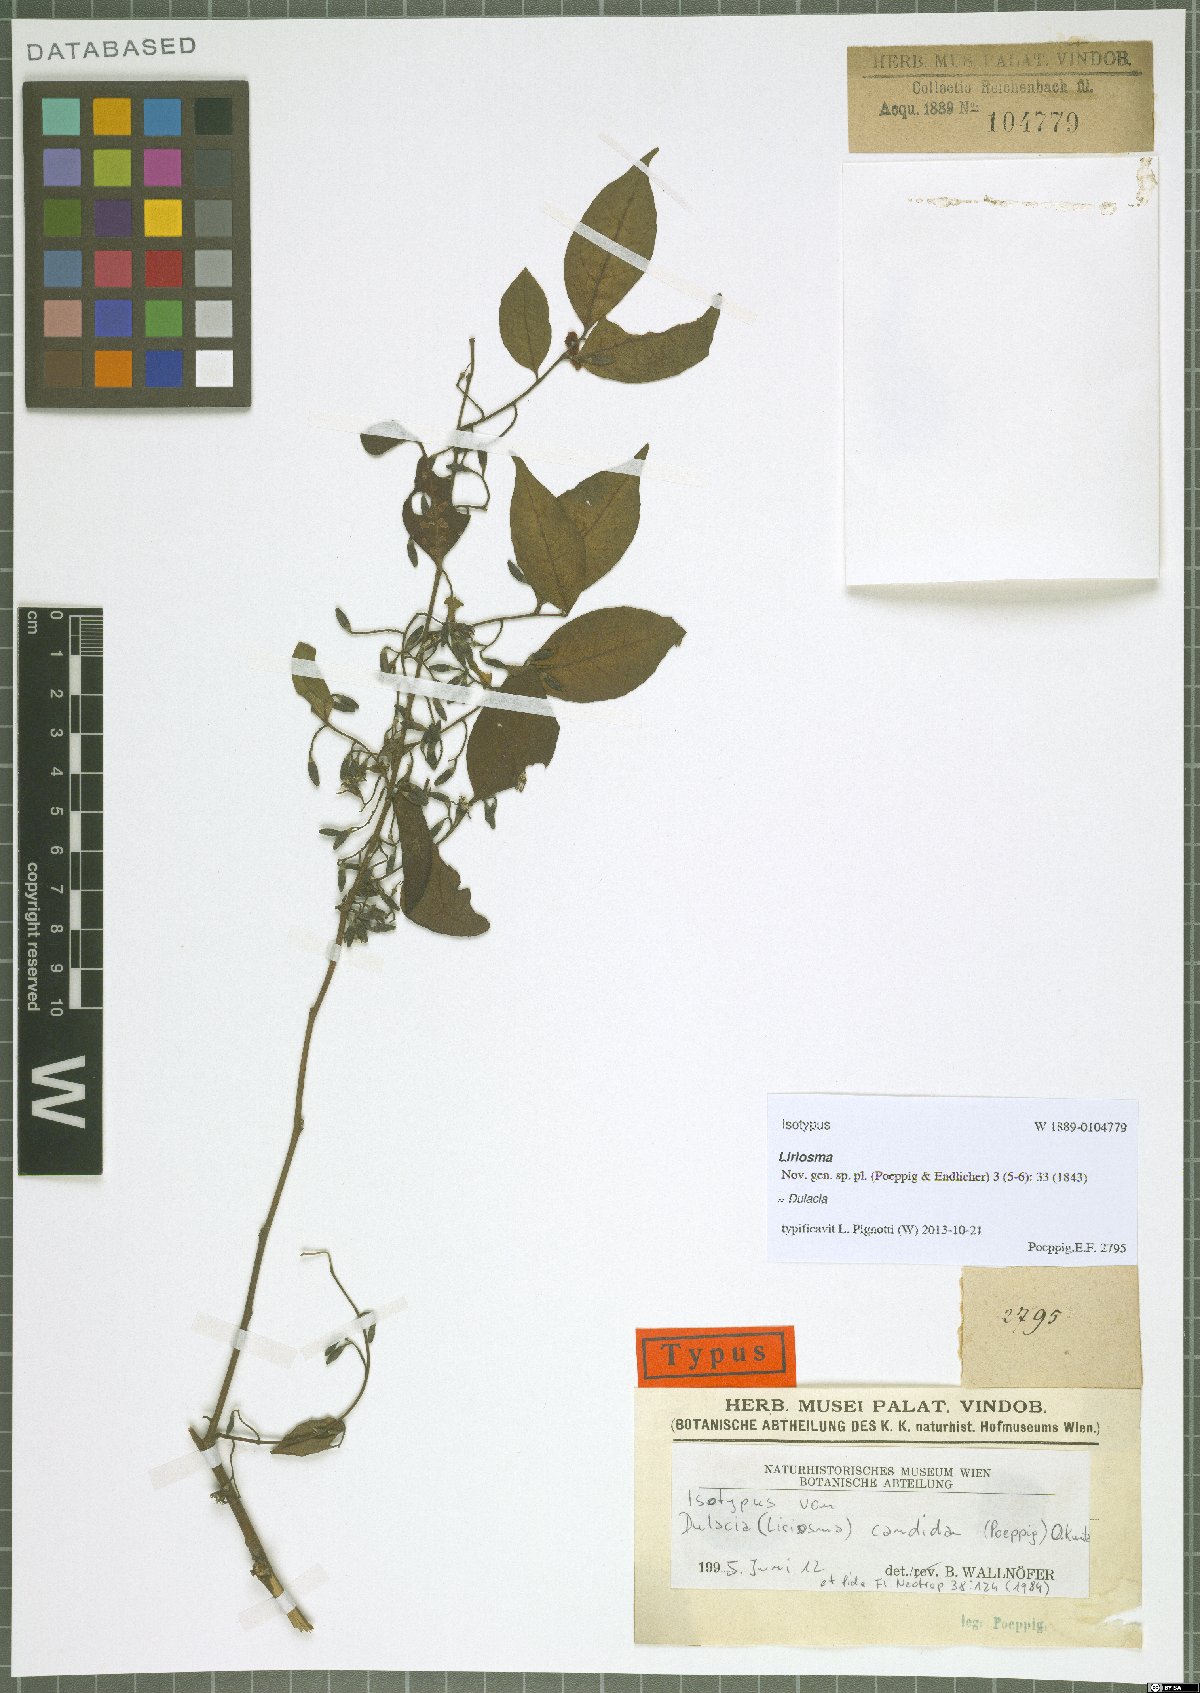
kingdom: Plantae
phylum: Tracheophyta
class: Magnoliopsida
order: Santalales
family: Olacaceae
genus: Dulacia
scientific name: Dulacia candida
